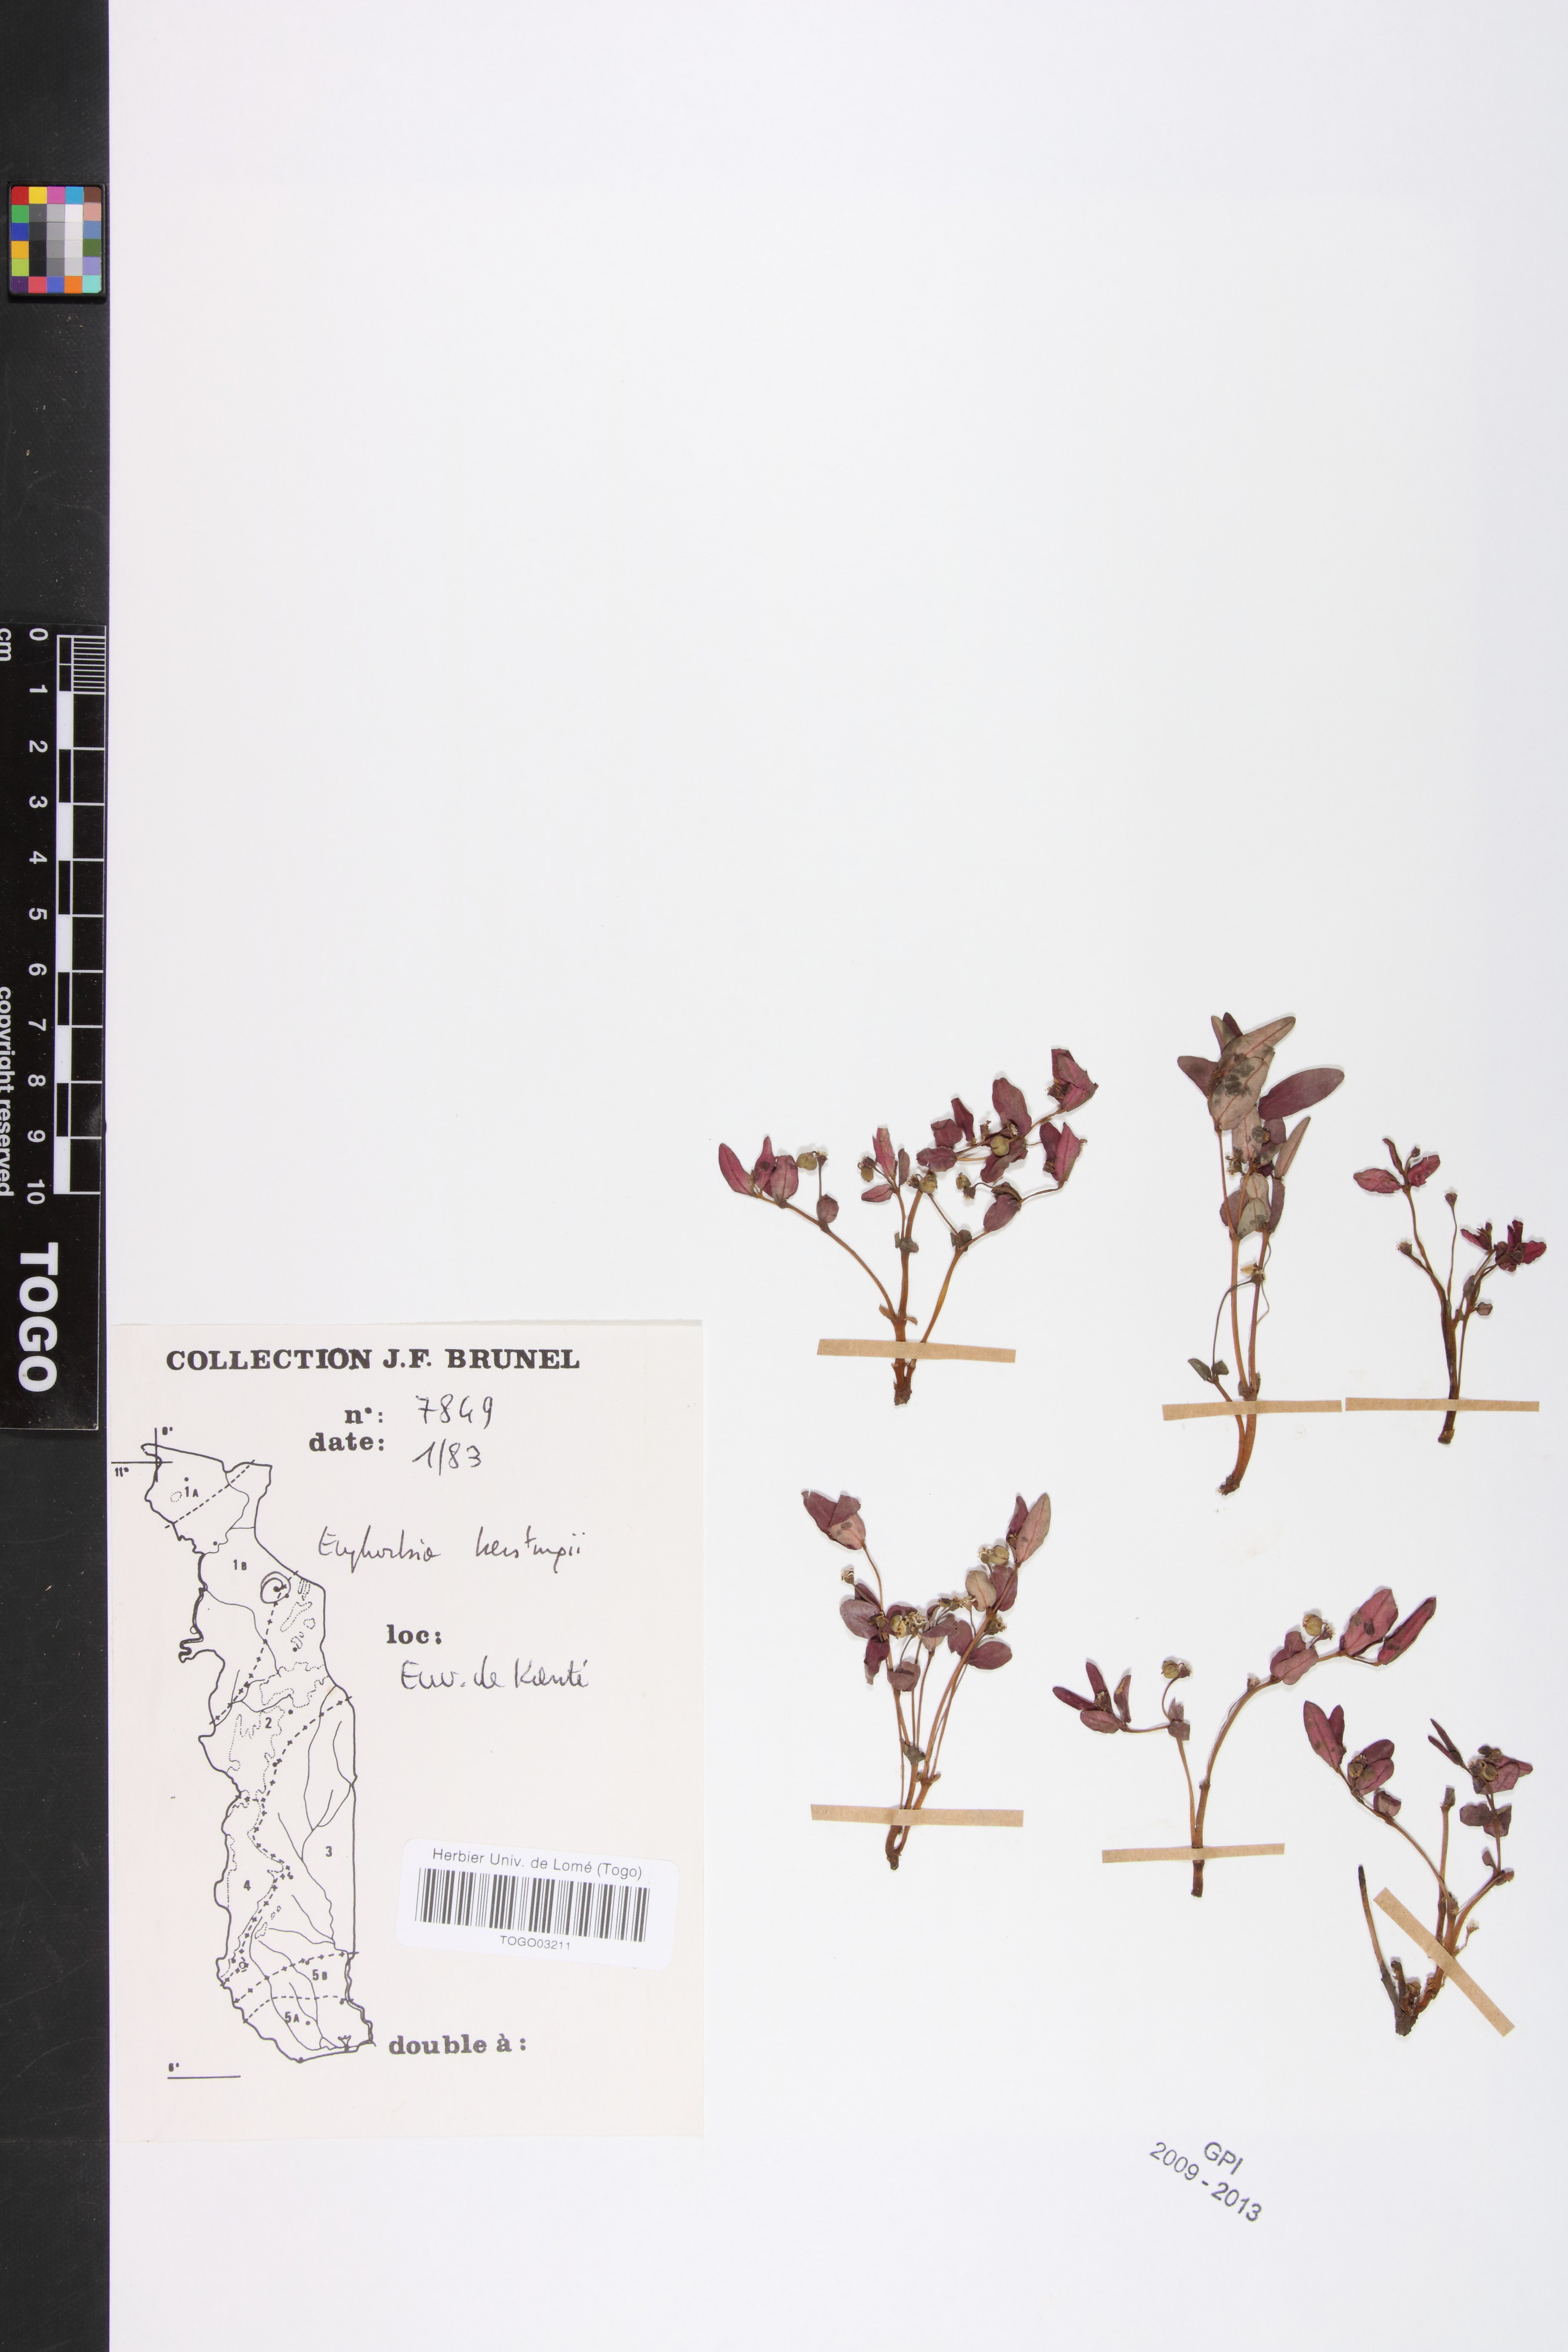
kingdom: Plantae
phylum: Tracheophyta
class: Magnoliopsida
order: Malpighiales
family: Euphorbiaceae
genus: Euphorbia
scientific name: Euphorbia kerstingii
